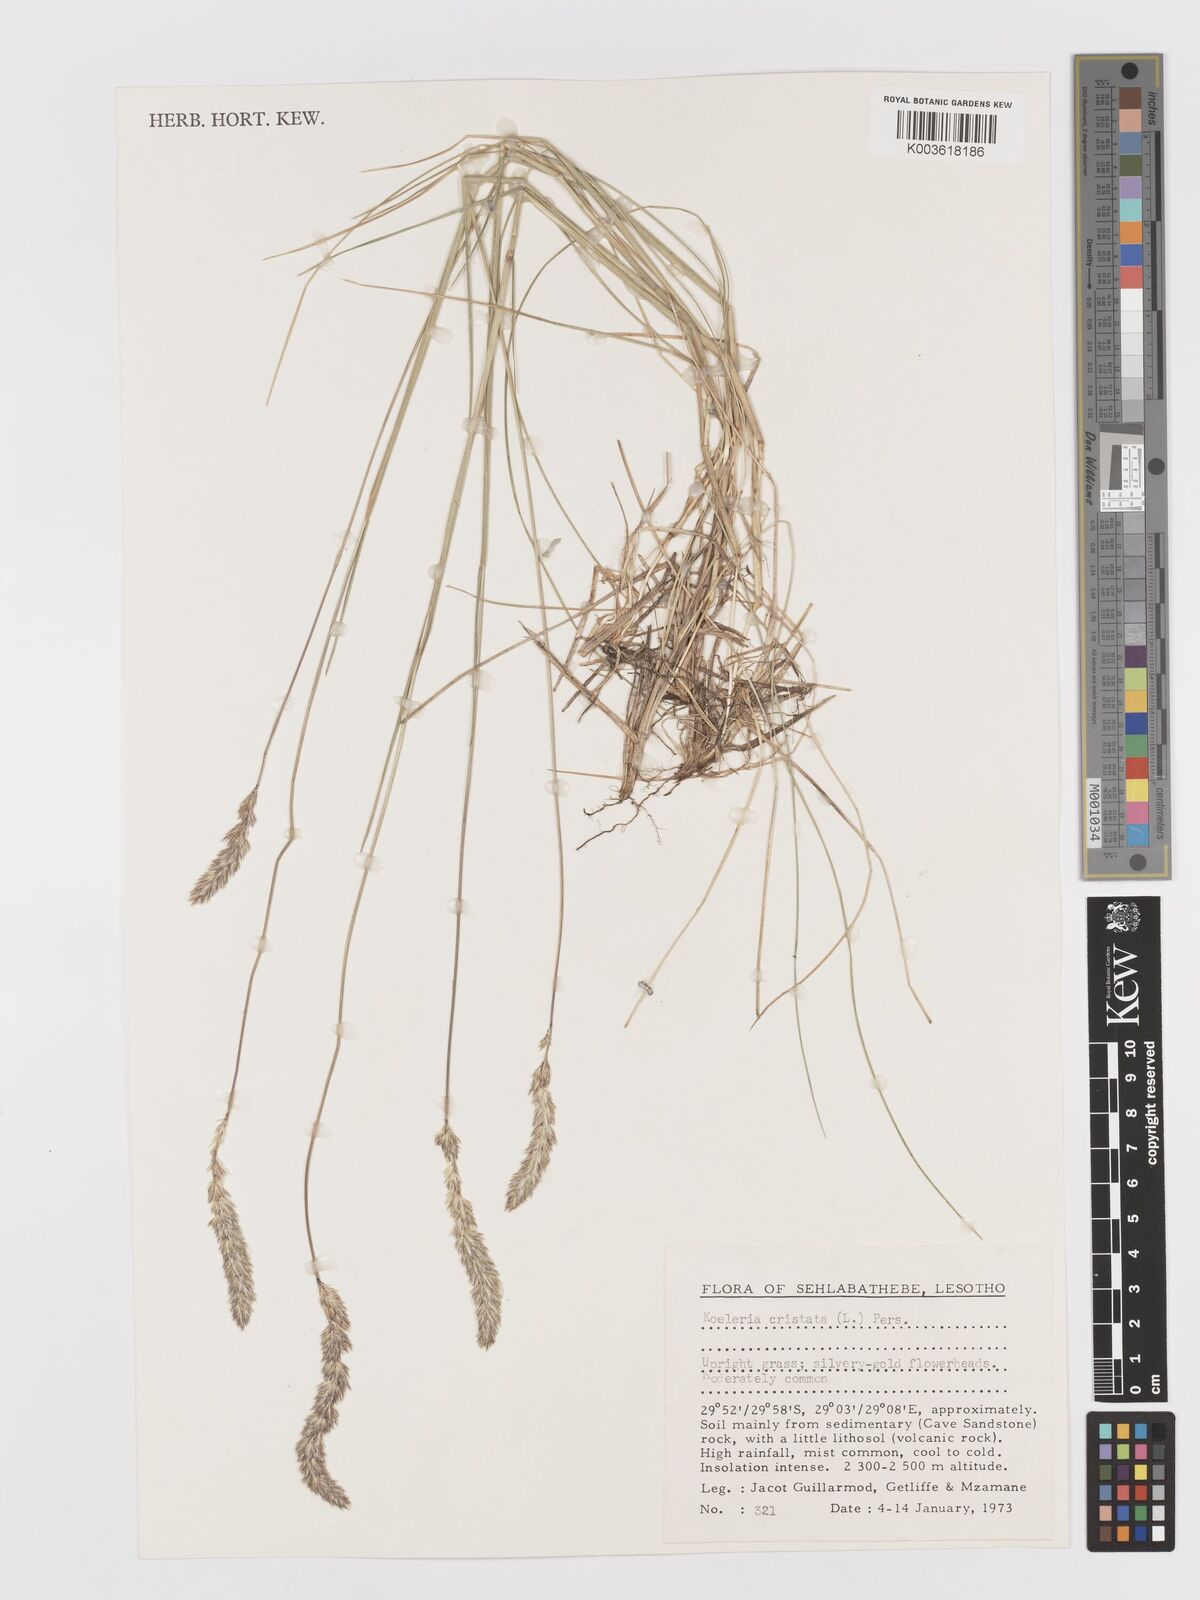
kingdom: Plantae
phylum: Tracheophyta
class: Liliopsida
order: Poales
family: Poaceae
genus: Koeleria
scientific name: Koeleria capensis
